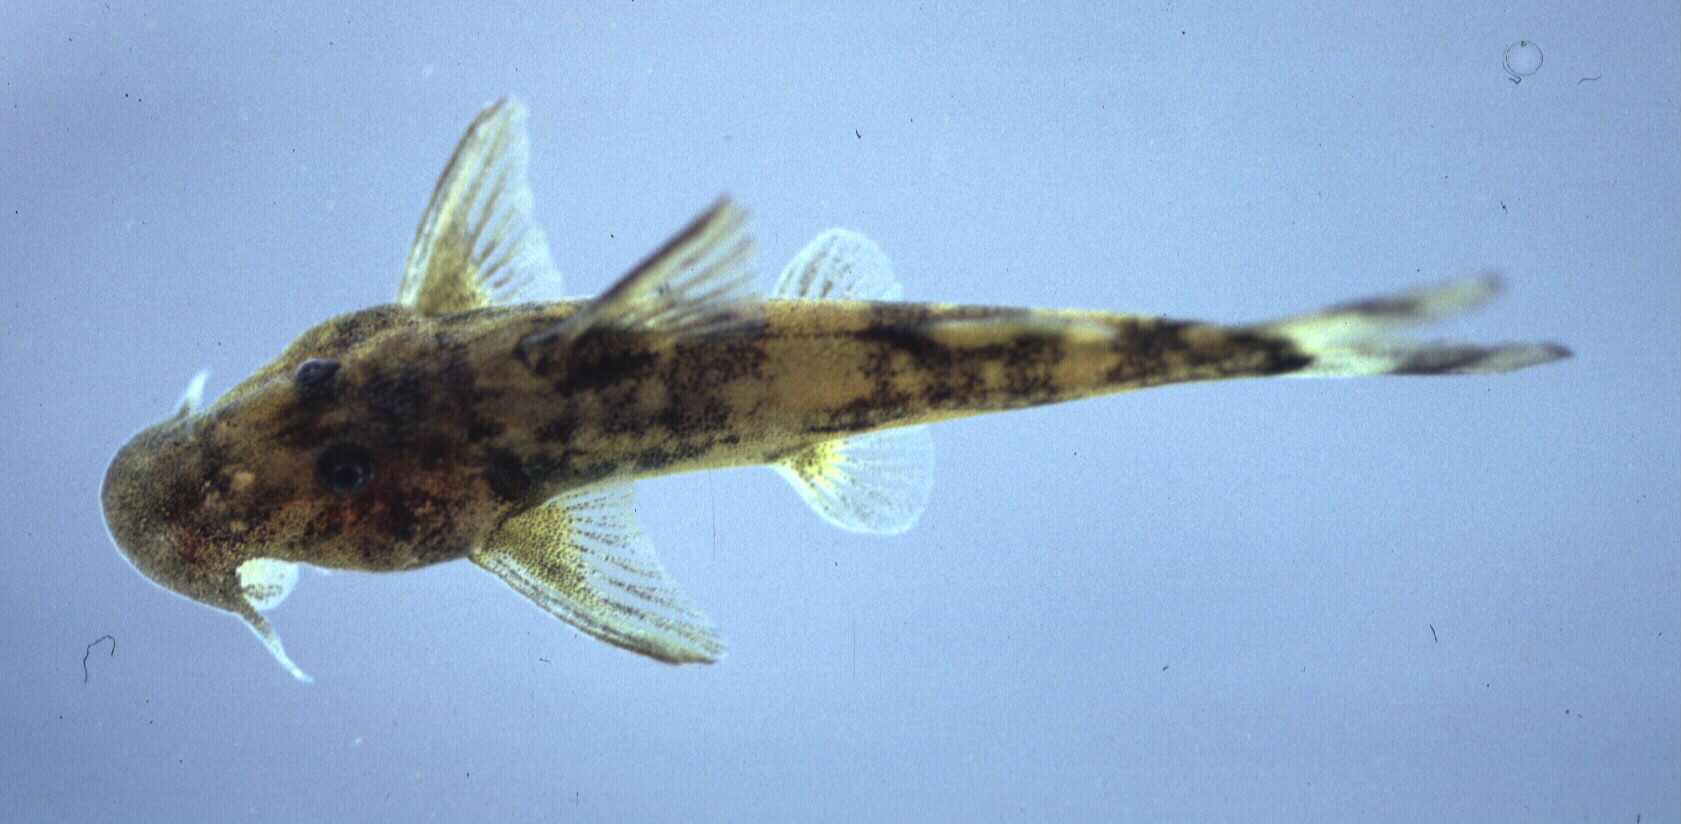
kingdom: Animalia
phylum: Chordata
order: Siluriformes
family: Mochokidae
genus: Chiloglanis
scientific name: Chiloglanis fasciatus
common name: Okavango suckermouth
